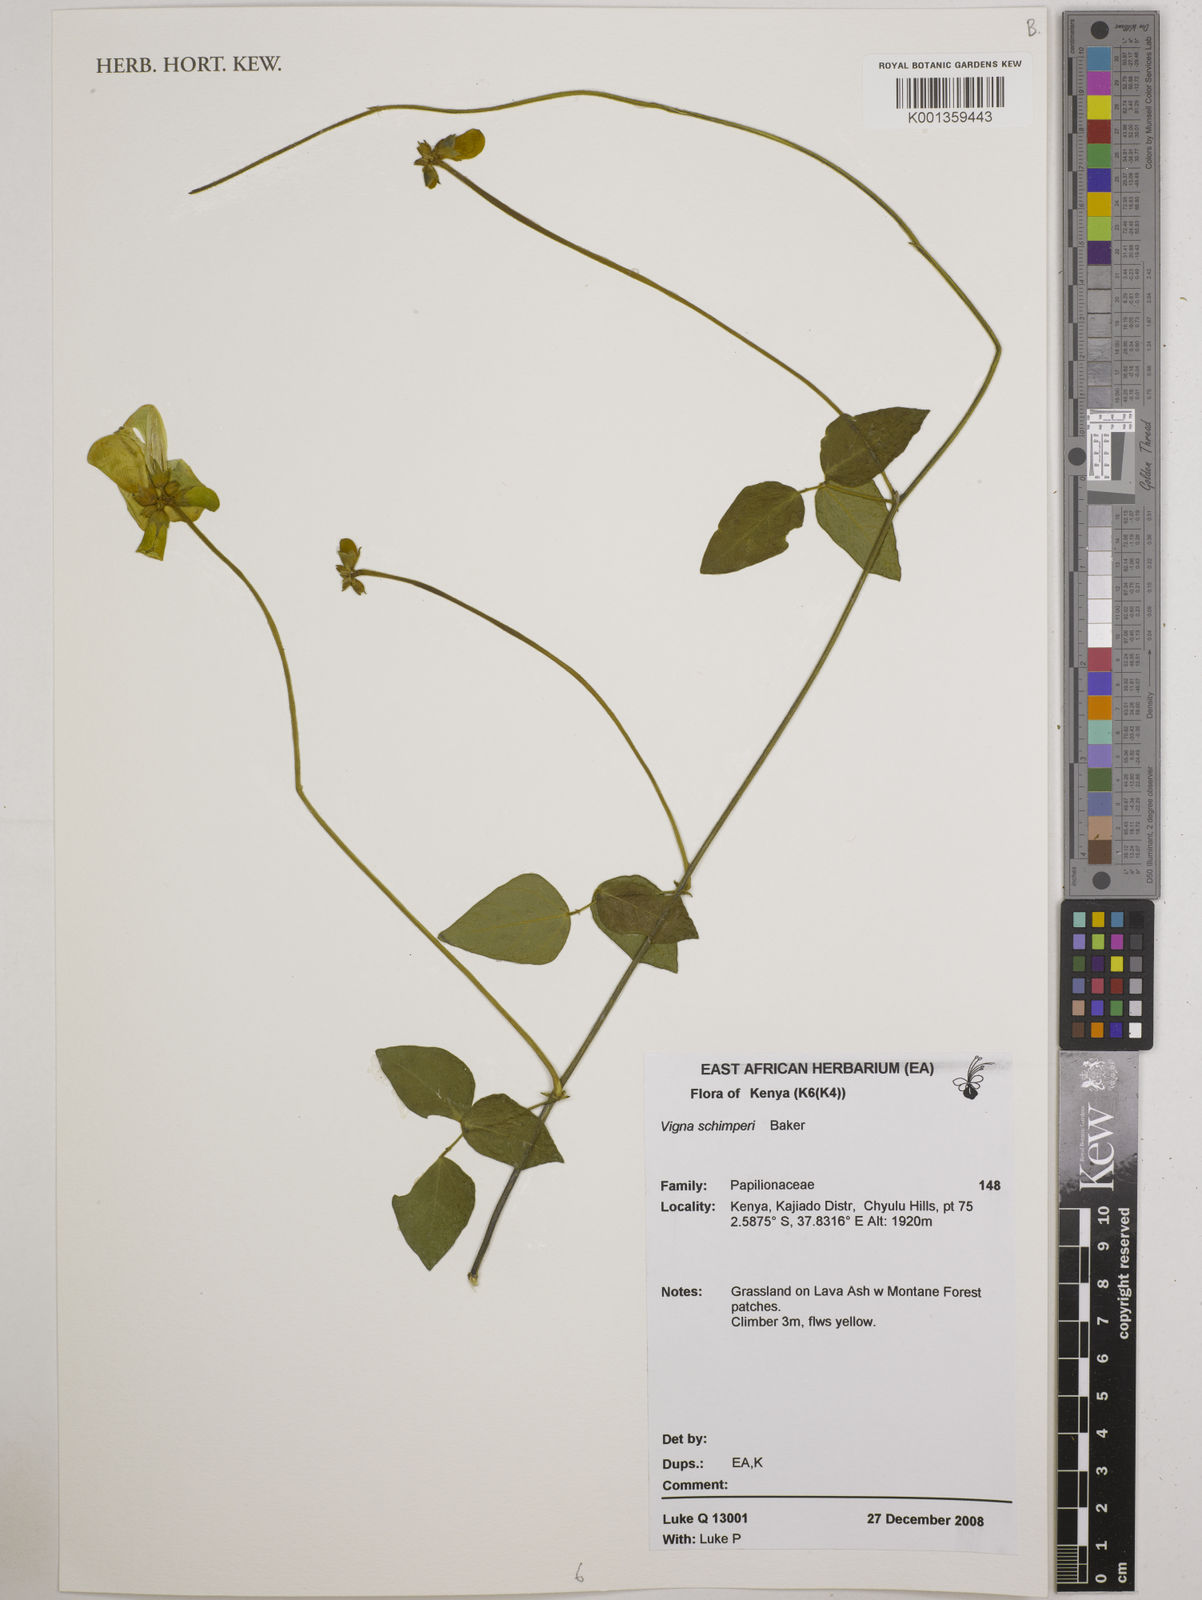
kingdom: Plantae
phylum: Tracheophyta
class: Magnoliopsida
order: Fabales
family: Fabaceae
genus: Vigna
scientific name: Vigna schimperi
